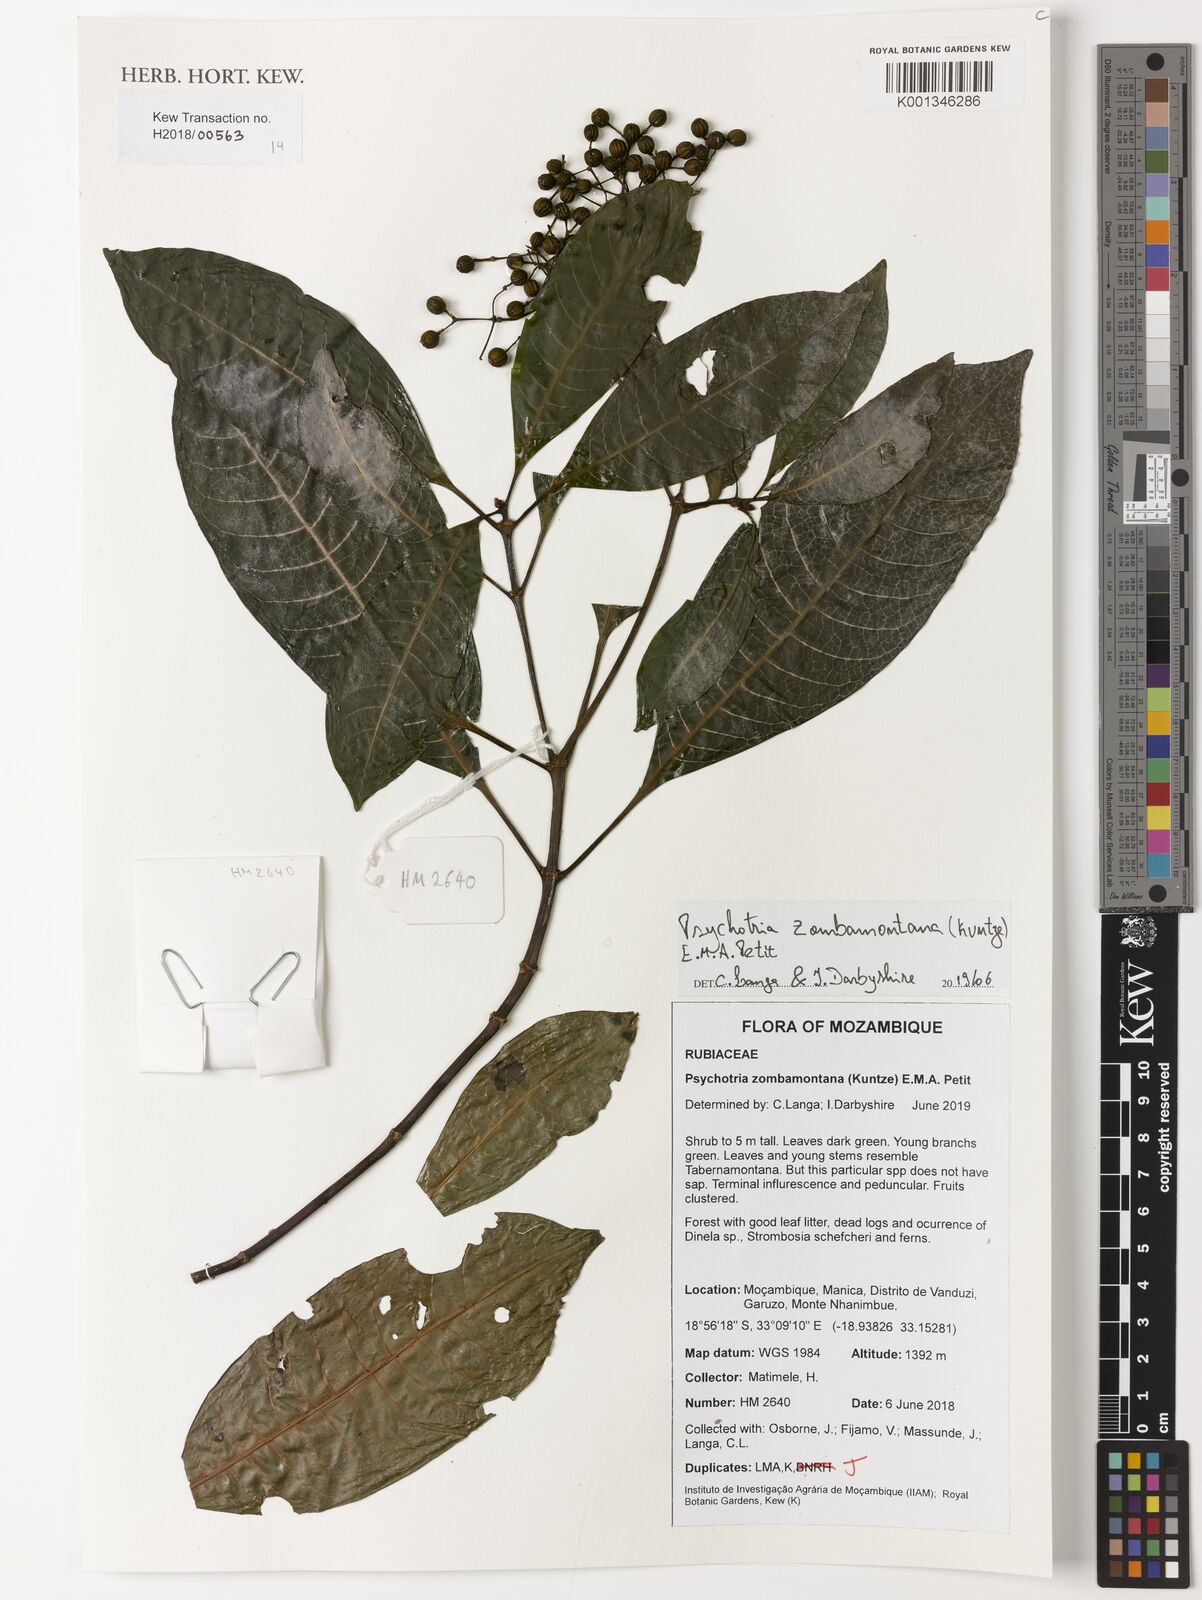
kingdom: Plantae
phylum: Tracheophyta
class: Magnoliopsida
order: Gentianales
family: Rubiaceae
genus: Psychotria
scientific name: Psychotria zombamontana
